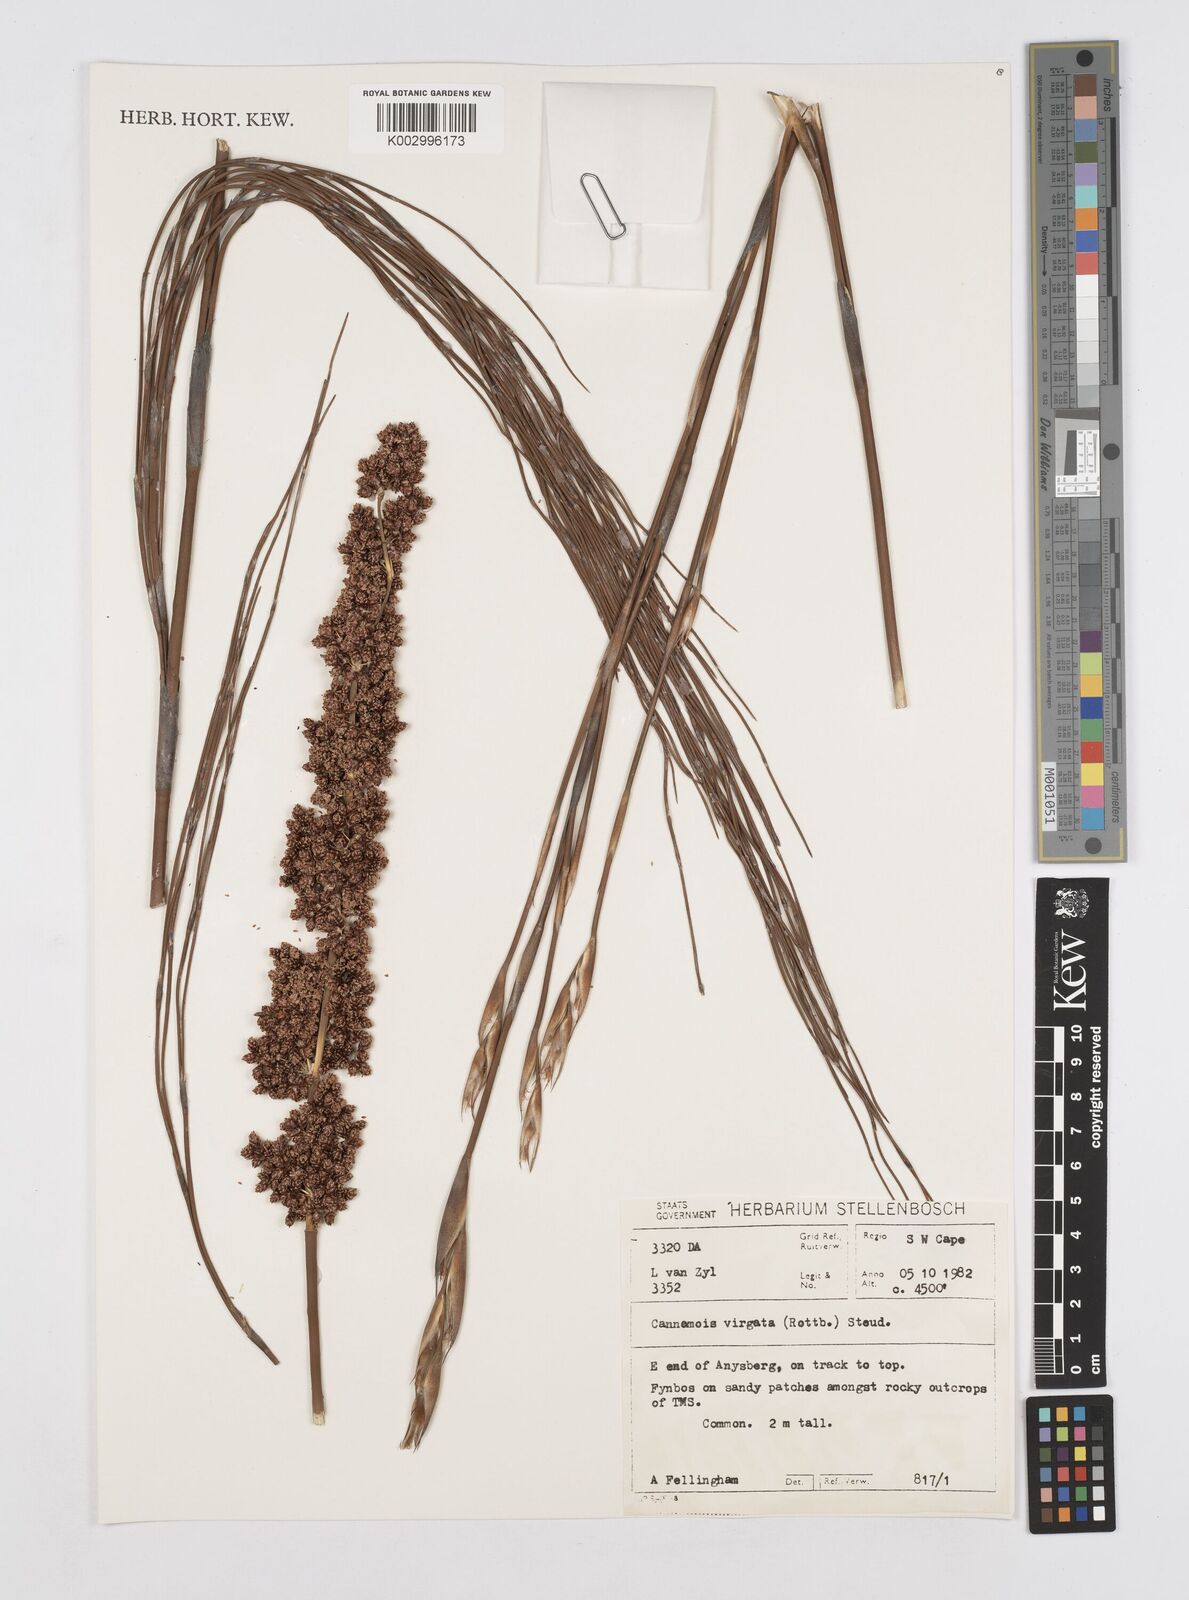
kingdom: Plantae
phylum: Tracheophyta
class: Liliopsida
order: Poales
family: Restionaceae
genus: Cannomois
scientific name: Cannomois virgata
